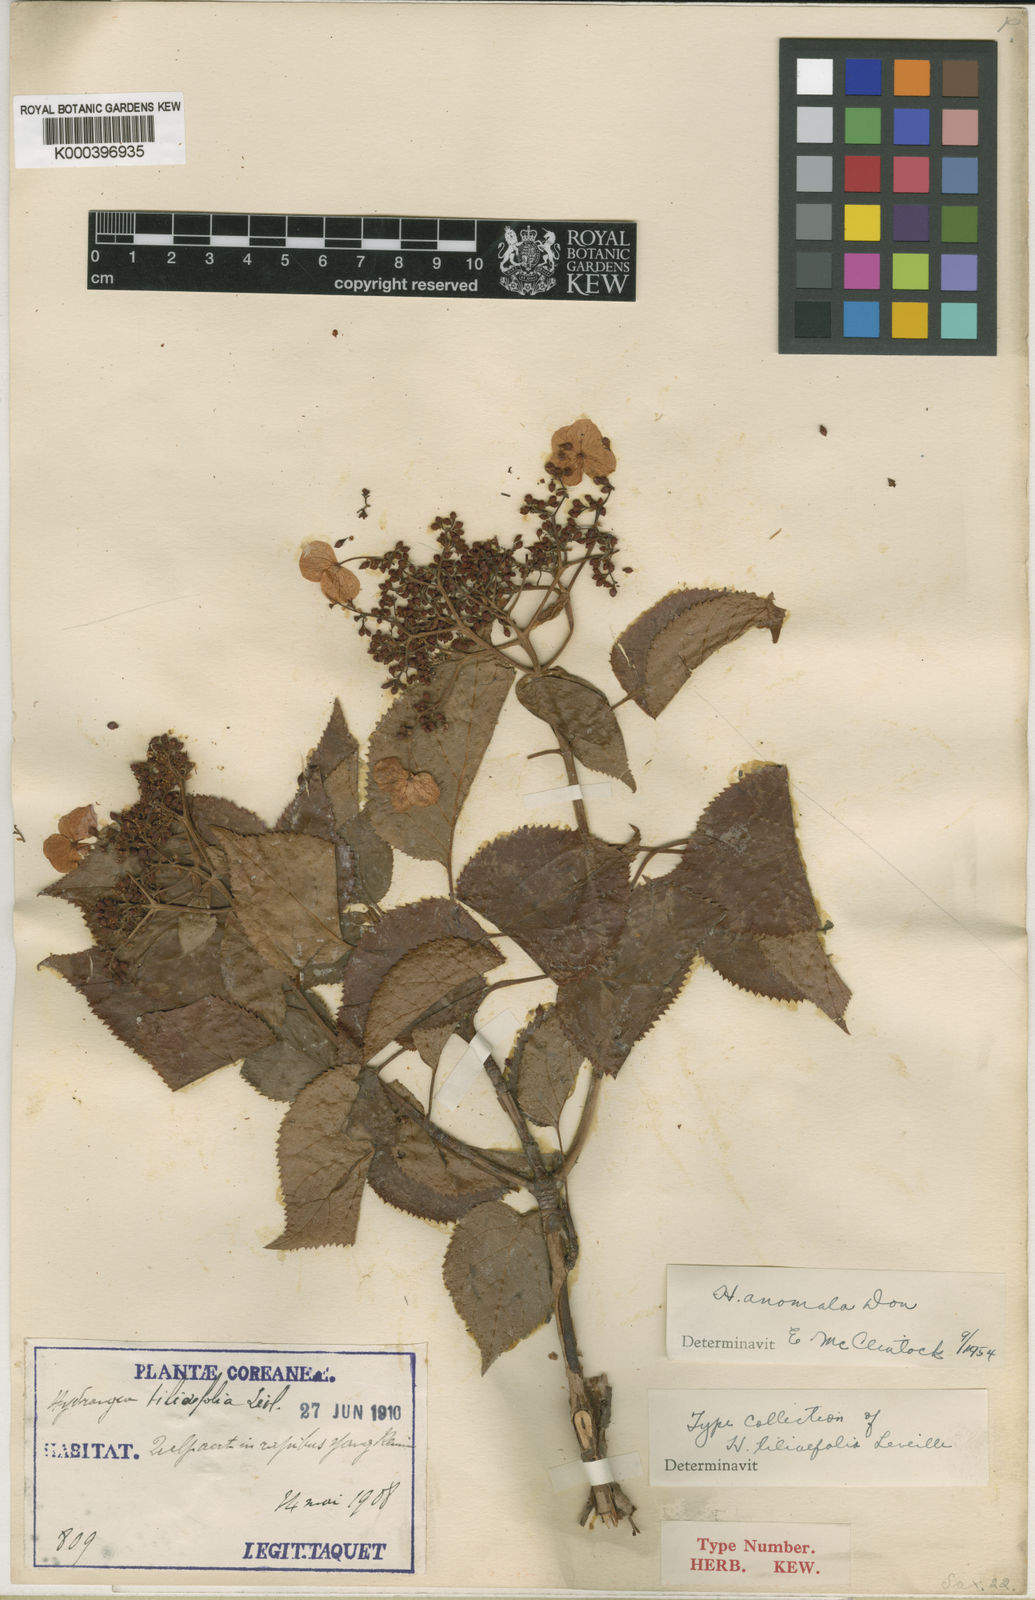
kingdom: Plantae
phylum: Tracheophyta
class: Magnoliopsida
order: Cornales
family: Hydrangeaceae
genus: Hydrangea
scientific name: Hydrangea anomala
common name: Japanese climbing-hydrangea
